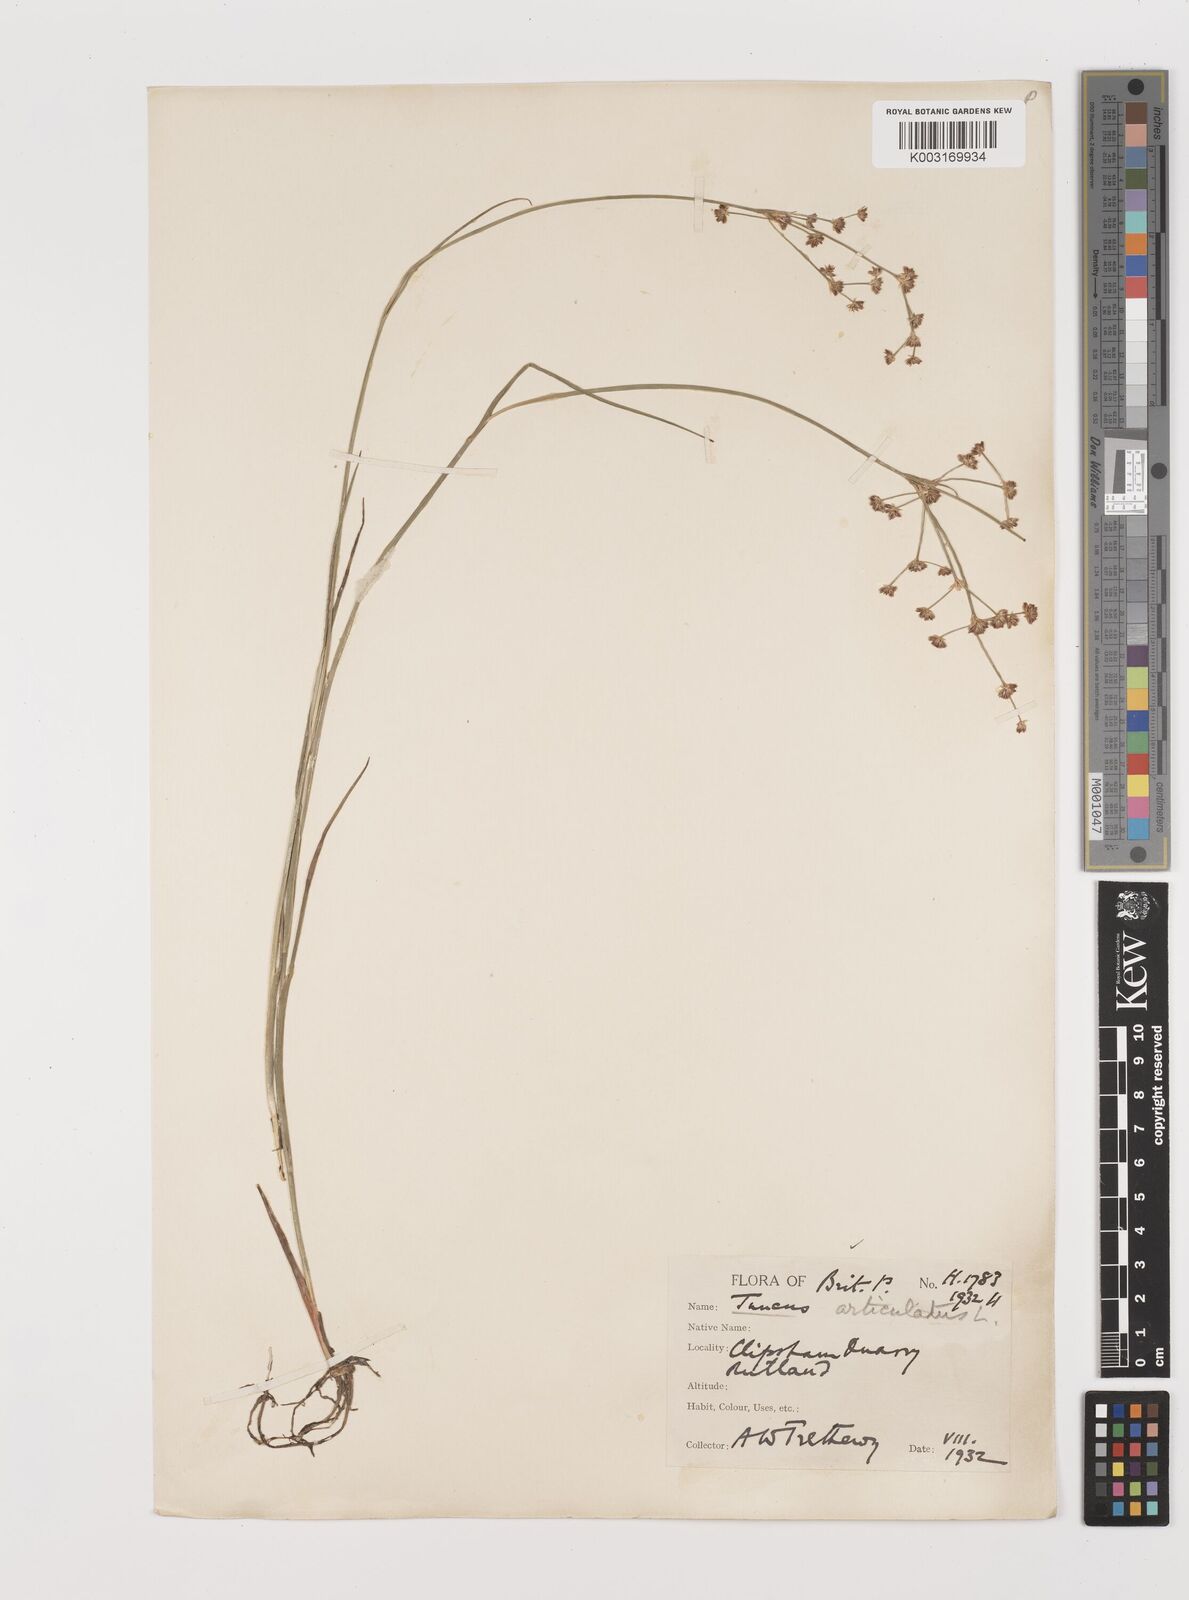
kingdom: Plantae
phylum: Tracheophyta
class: Liliopsida
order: Poales
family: Juncaceae
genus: Juncus
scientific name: Juncus articulatus
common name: Jointed rush
